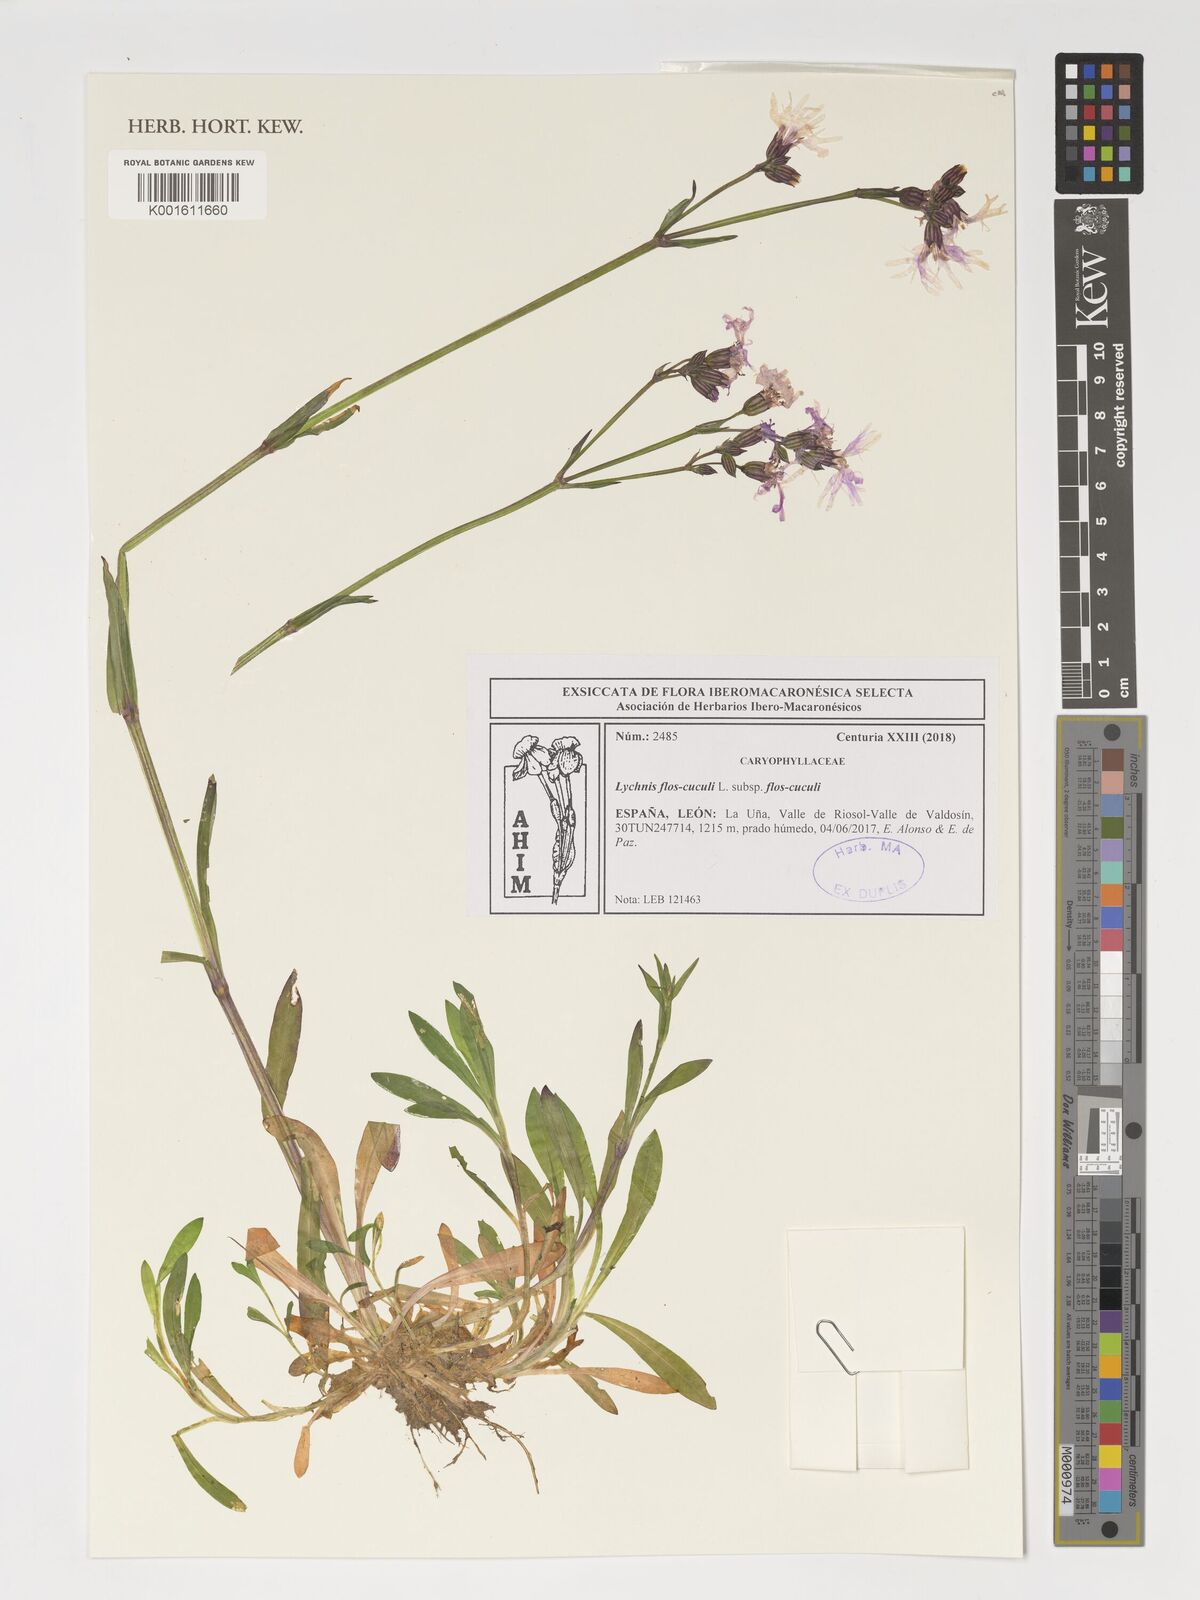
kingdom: Plantae
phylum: Tracheophyta
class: Magnoliopsida
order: Caryophyllales
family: Caryophyllaceae
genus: Silene
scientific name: Silene flos-cuculi
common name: Ragged-robin
